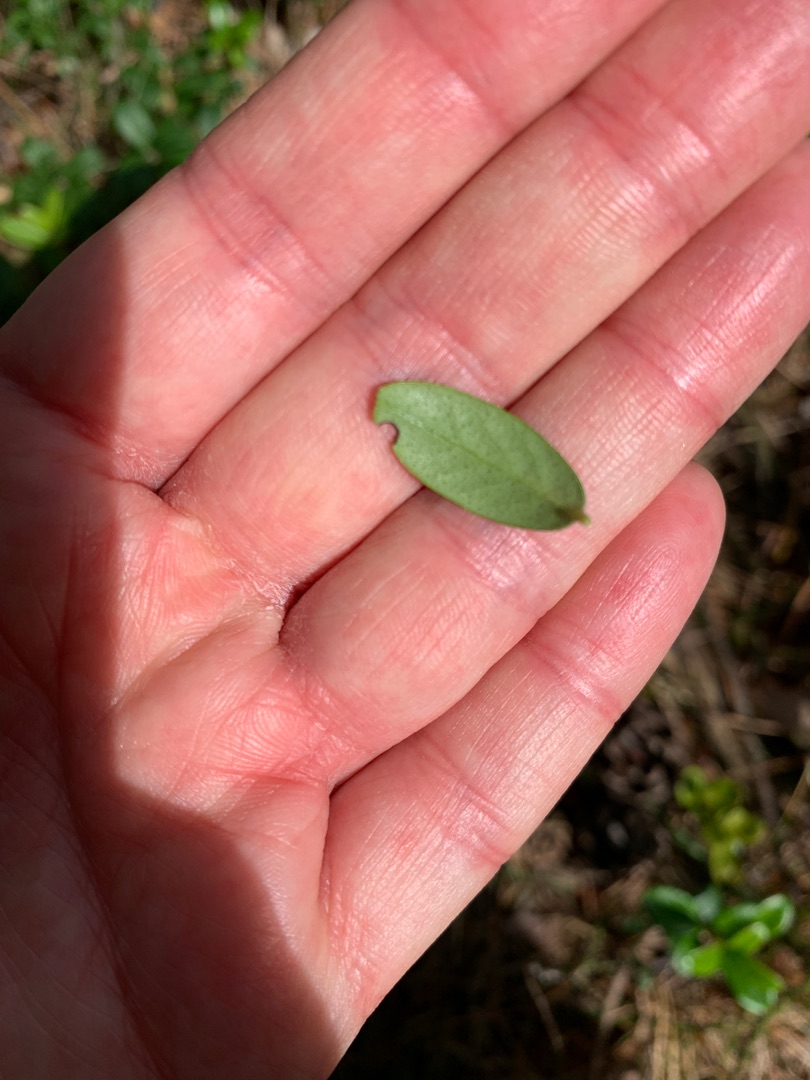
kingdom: Plantae
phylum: Tracheophyta
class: Magnoliopsida
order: Ericales
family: Ericaceae
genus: Vaccinium
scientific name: Vaccinium vitis-idaea
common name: Tyttebær
